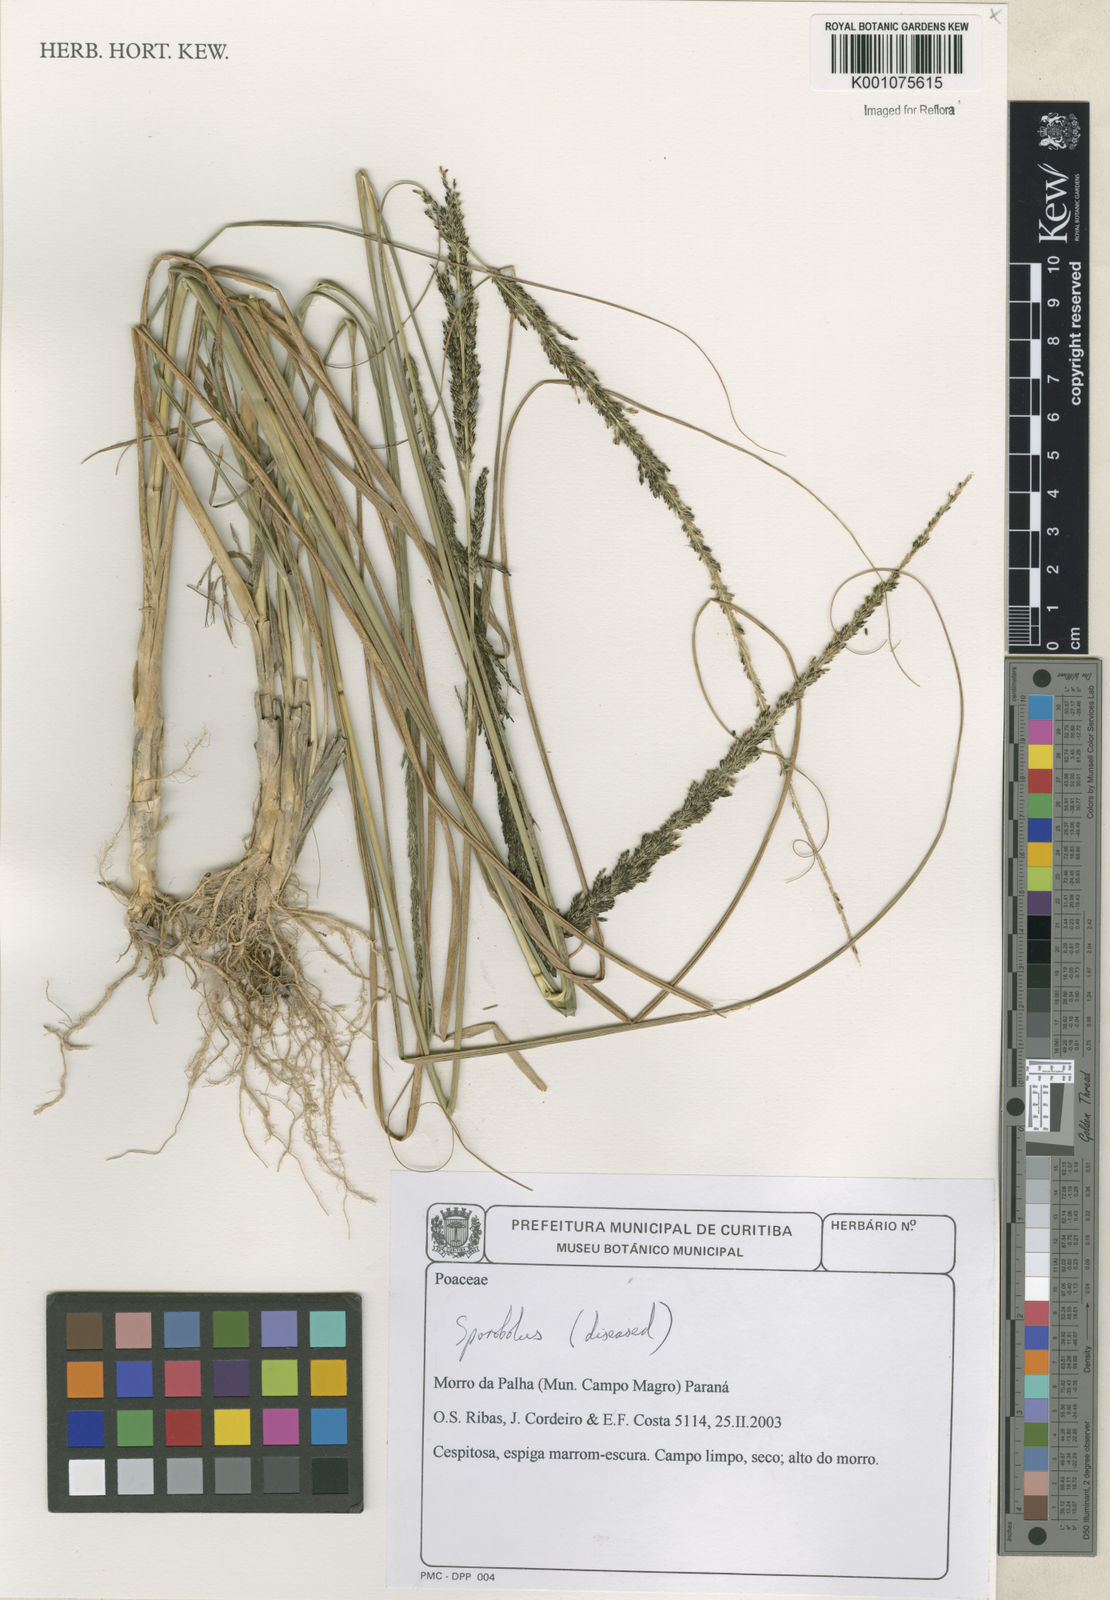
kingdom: Plantae
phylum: Tracheophyta
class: Liliopsida
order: Poales
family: Poaceae
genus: Sporobolus
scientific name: Sporobolus
